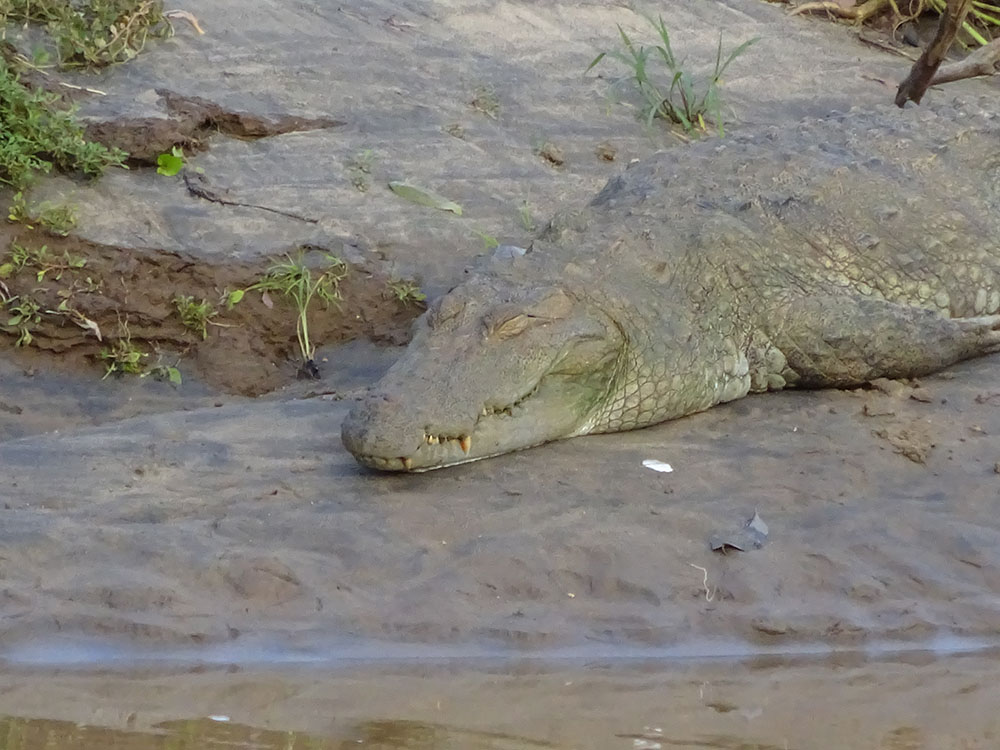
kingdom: Animalia
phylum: Chordata
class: Crocodylia
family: Crocodylidae
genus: Crocodylus
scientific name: Crocodylus porosus
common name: Saltwater crocodile
